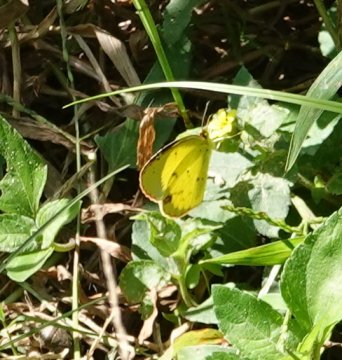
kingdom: Animalia
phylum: Arthropoda
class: Insecta
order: Lepidoptera
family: Pieridae
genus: Pyrisitia
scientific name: Pyrisitia lisa
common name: Little Yellow
